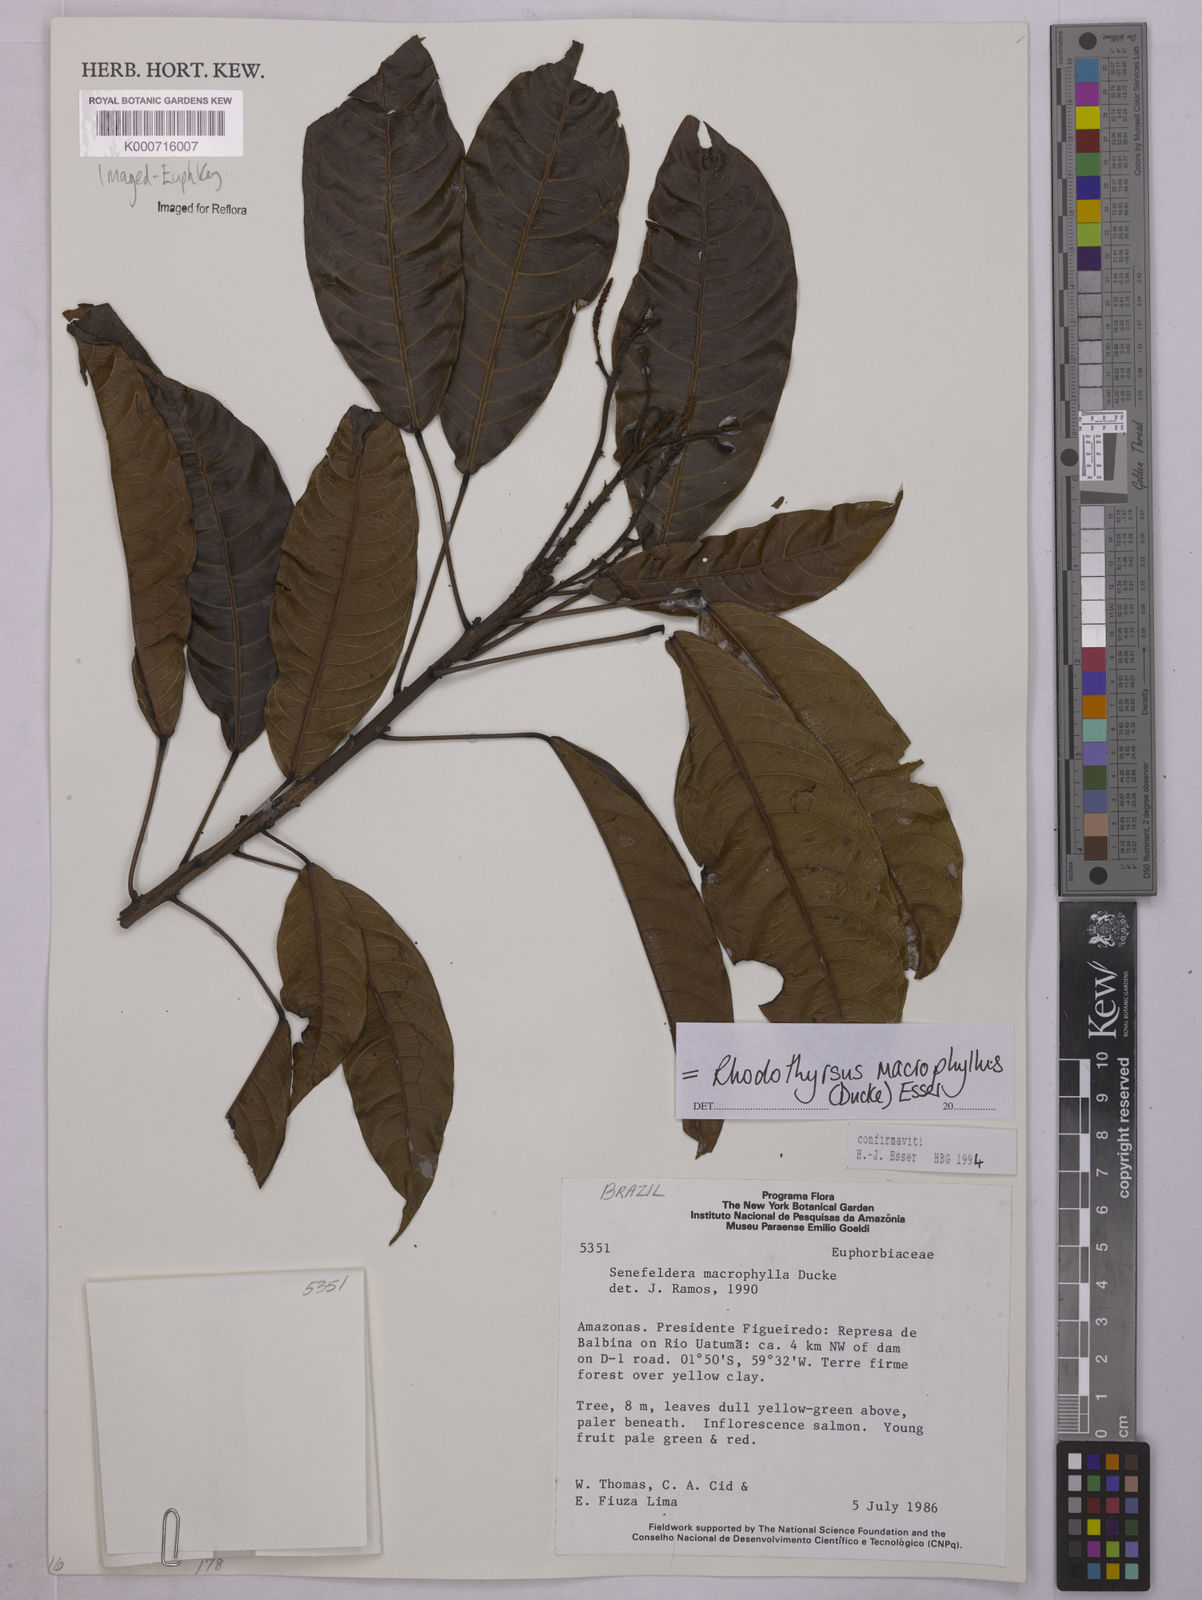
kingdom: Plantae
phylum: Tracheophyta
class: Magnoliopsida
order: Malpighiales
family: Euphorbiaceae
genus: Rhodothyrsus
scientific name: Rhodothyrsus macrophyllus
